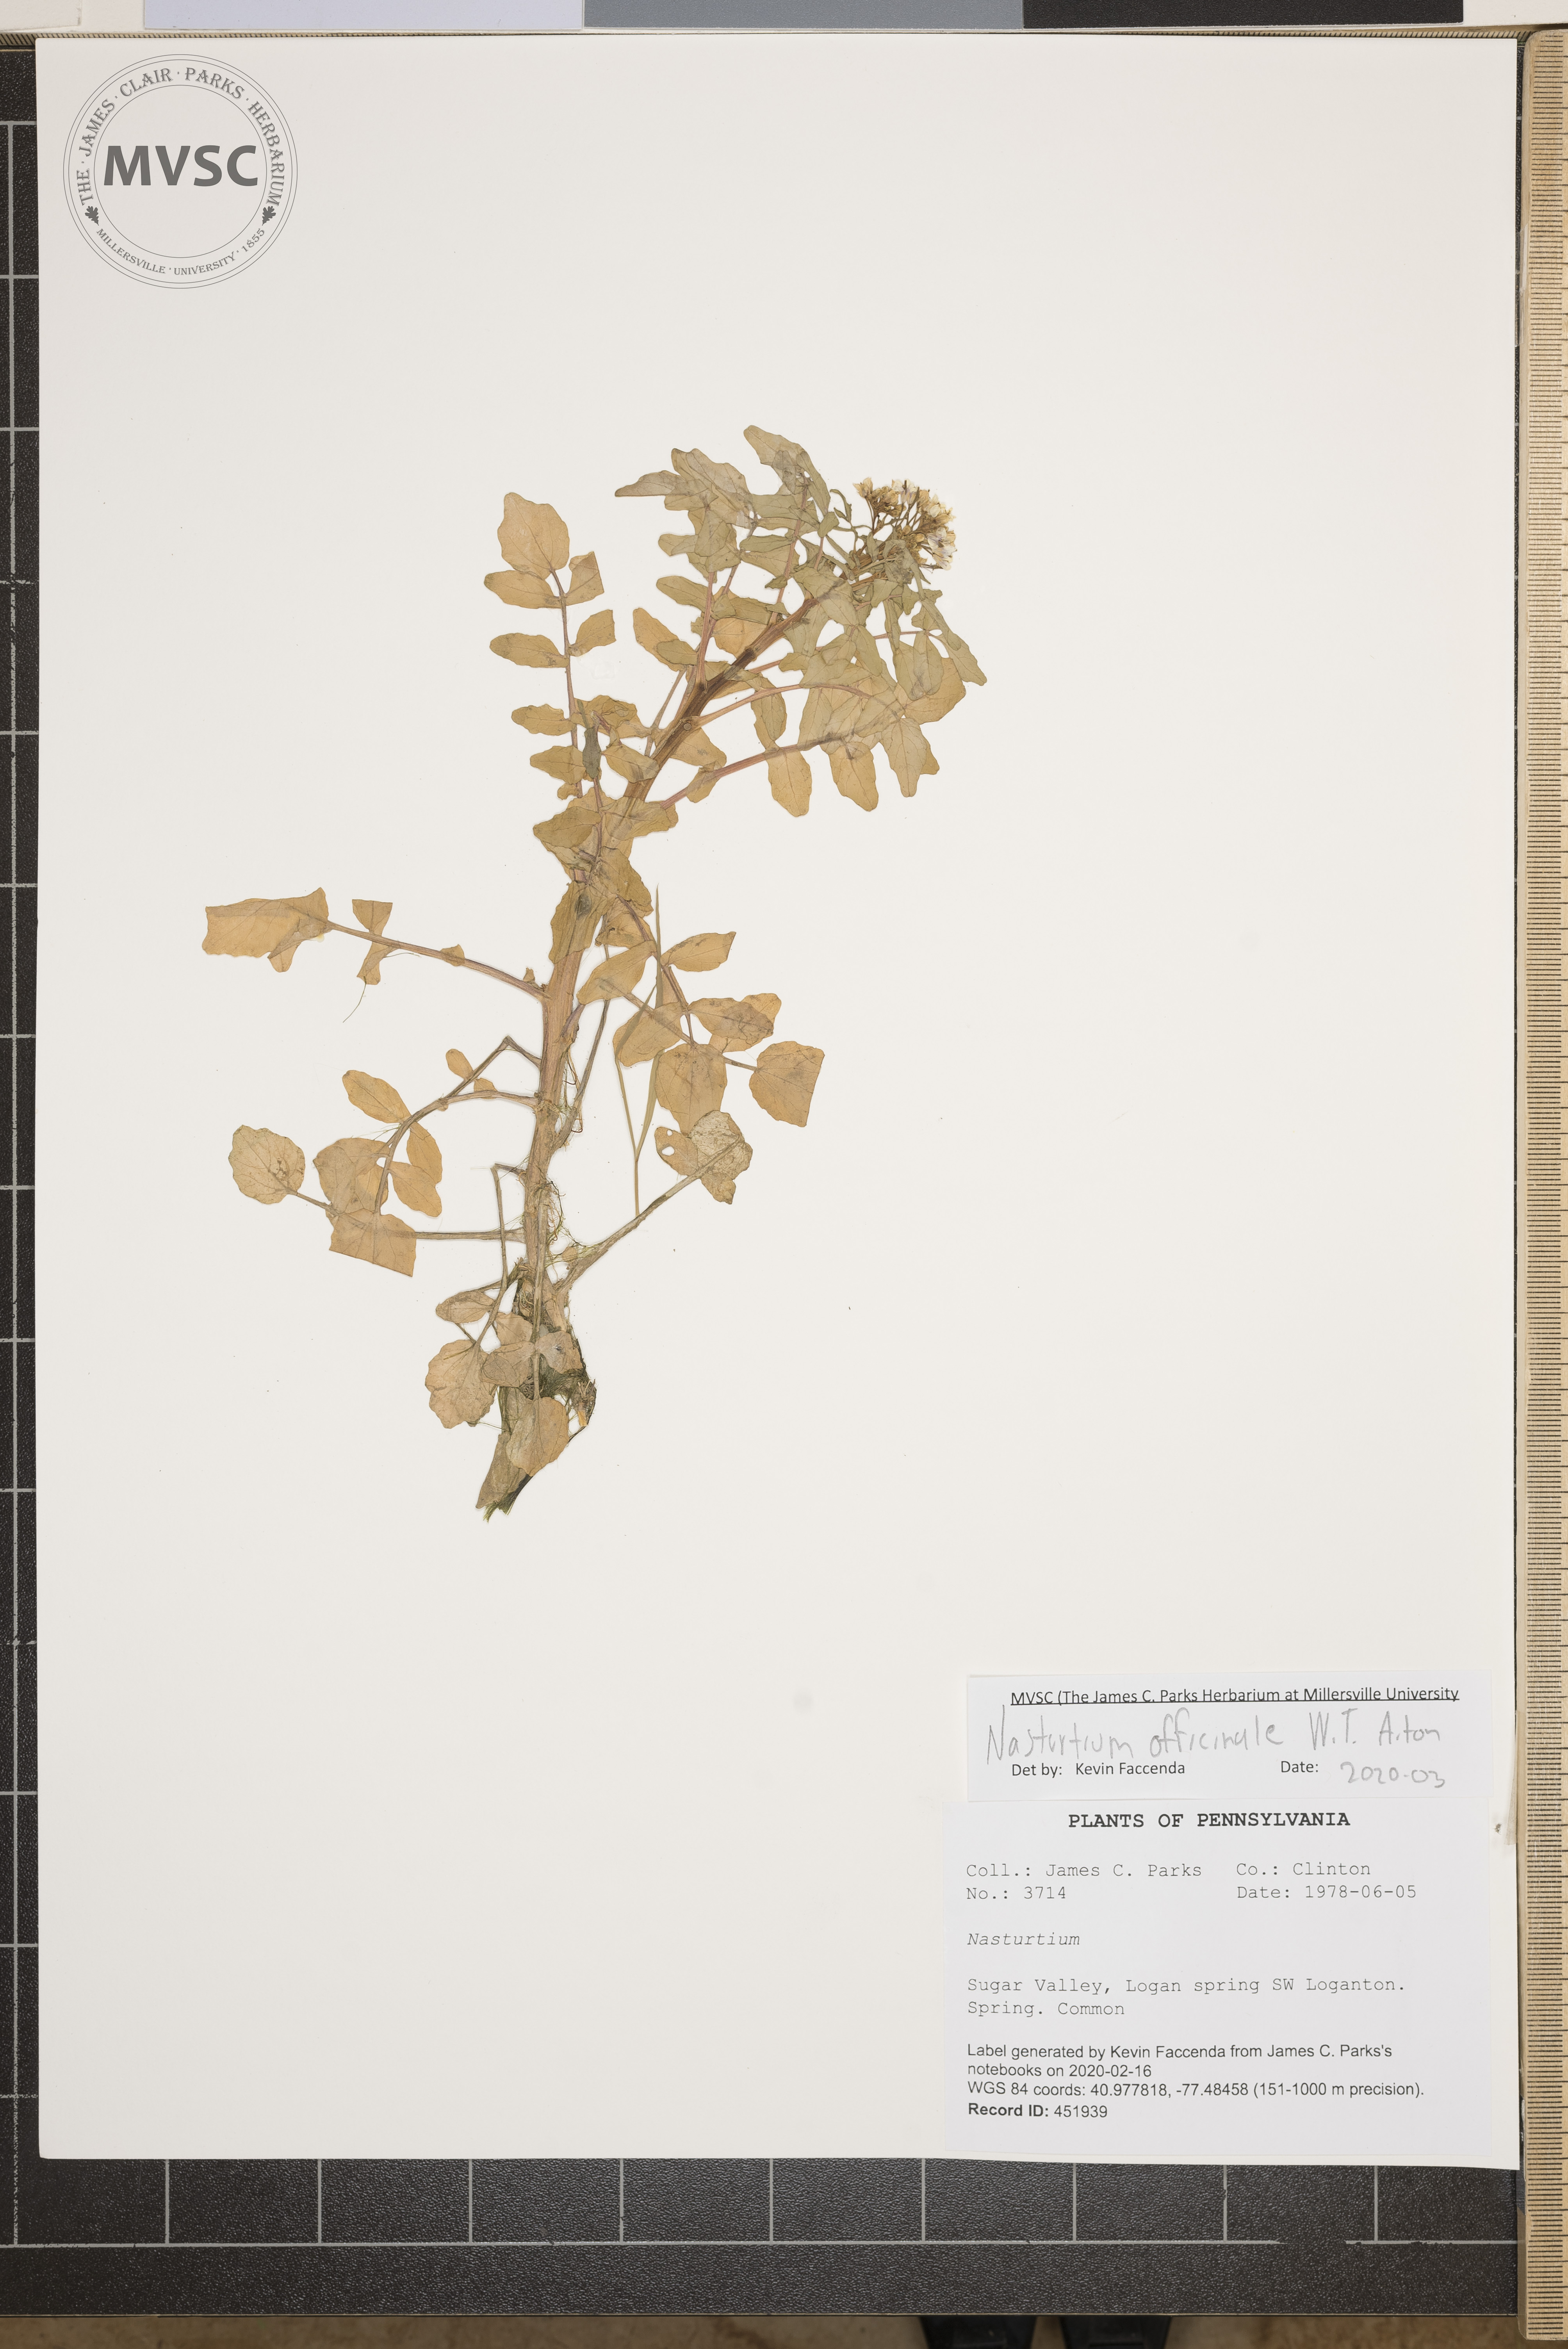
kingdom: Plantae
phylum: Tracheophyta
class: Magnoliopsida
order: Brassicales
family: Brassicaceae
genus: Nasturtium
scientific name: Nasturtium officinale
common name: Watercress
